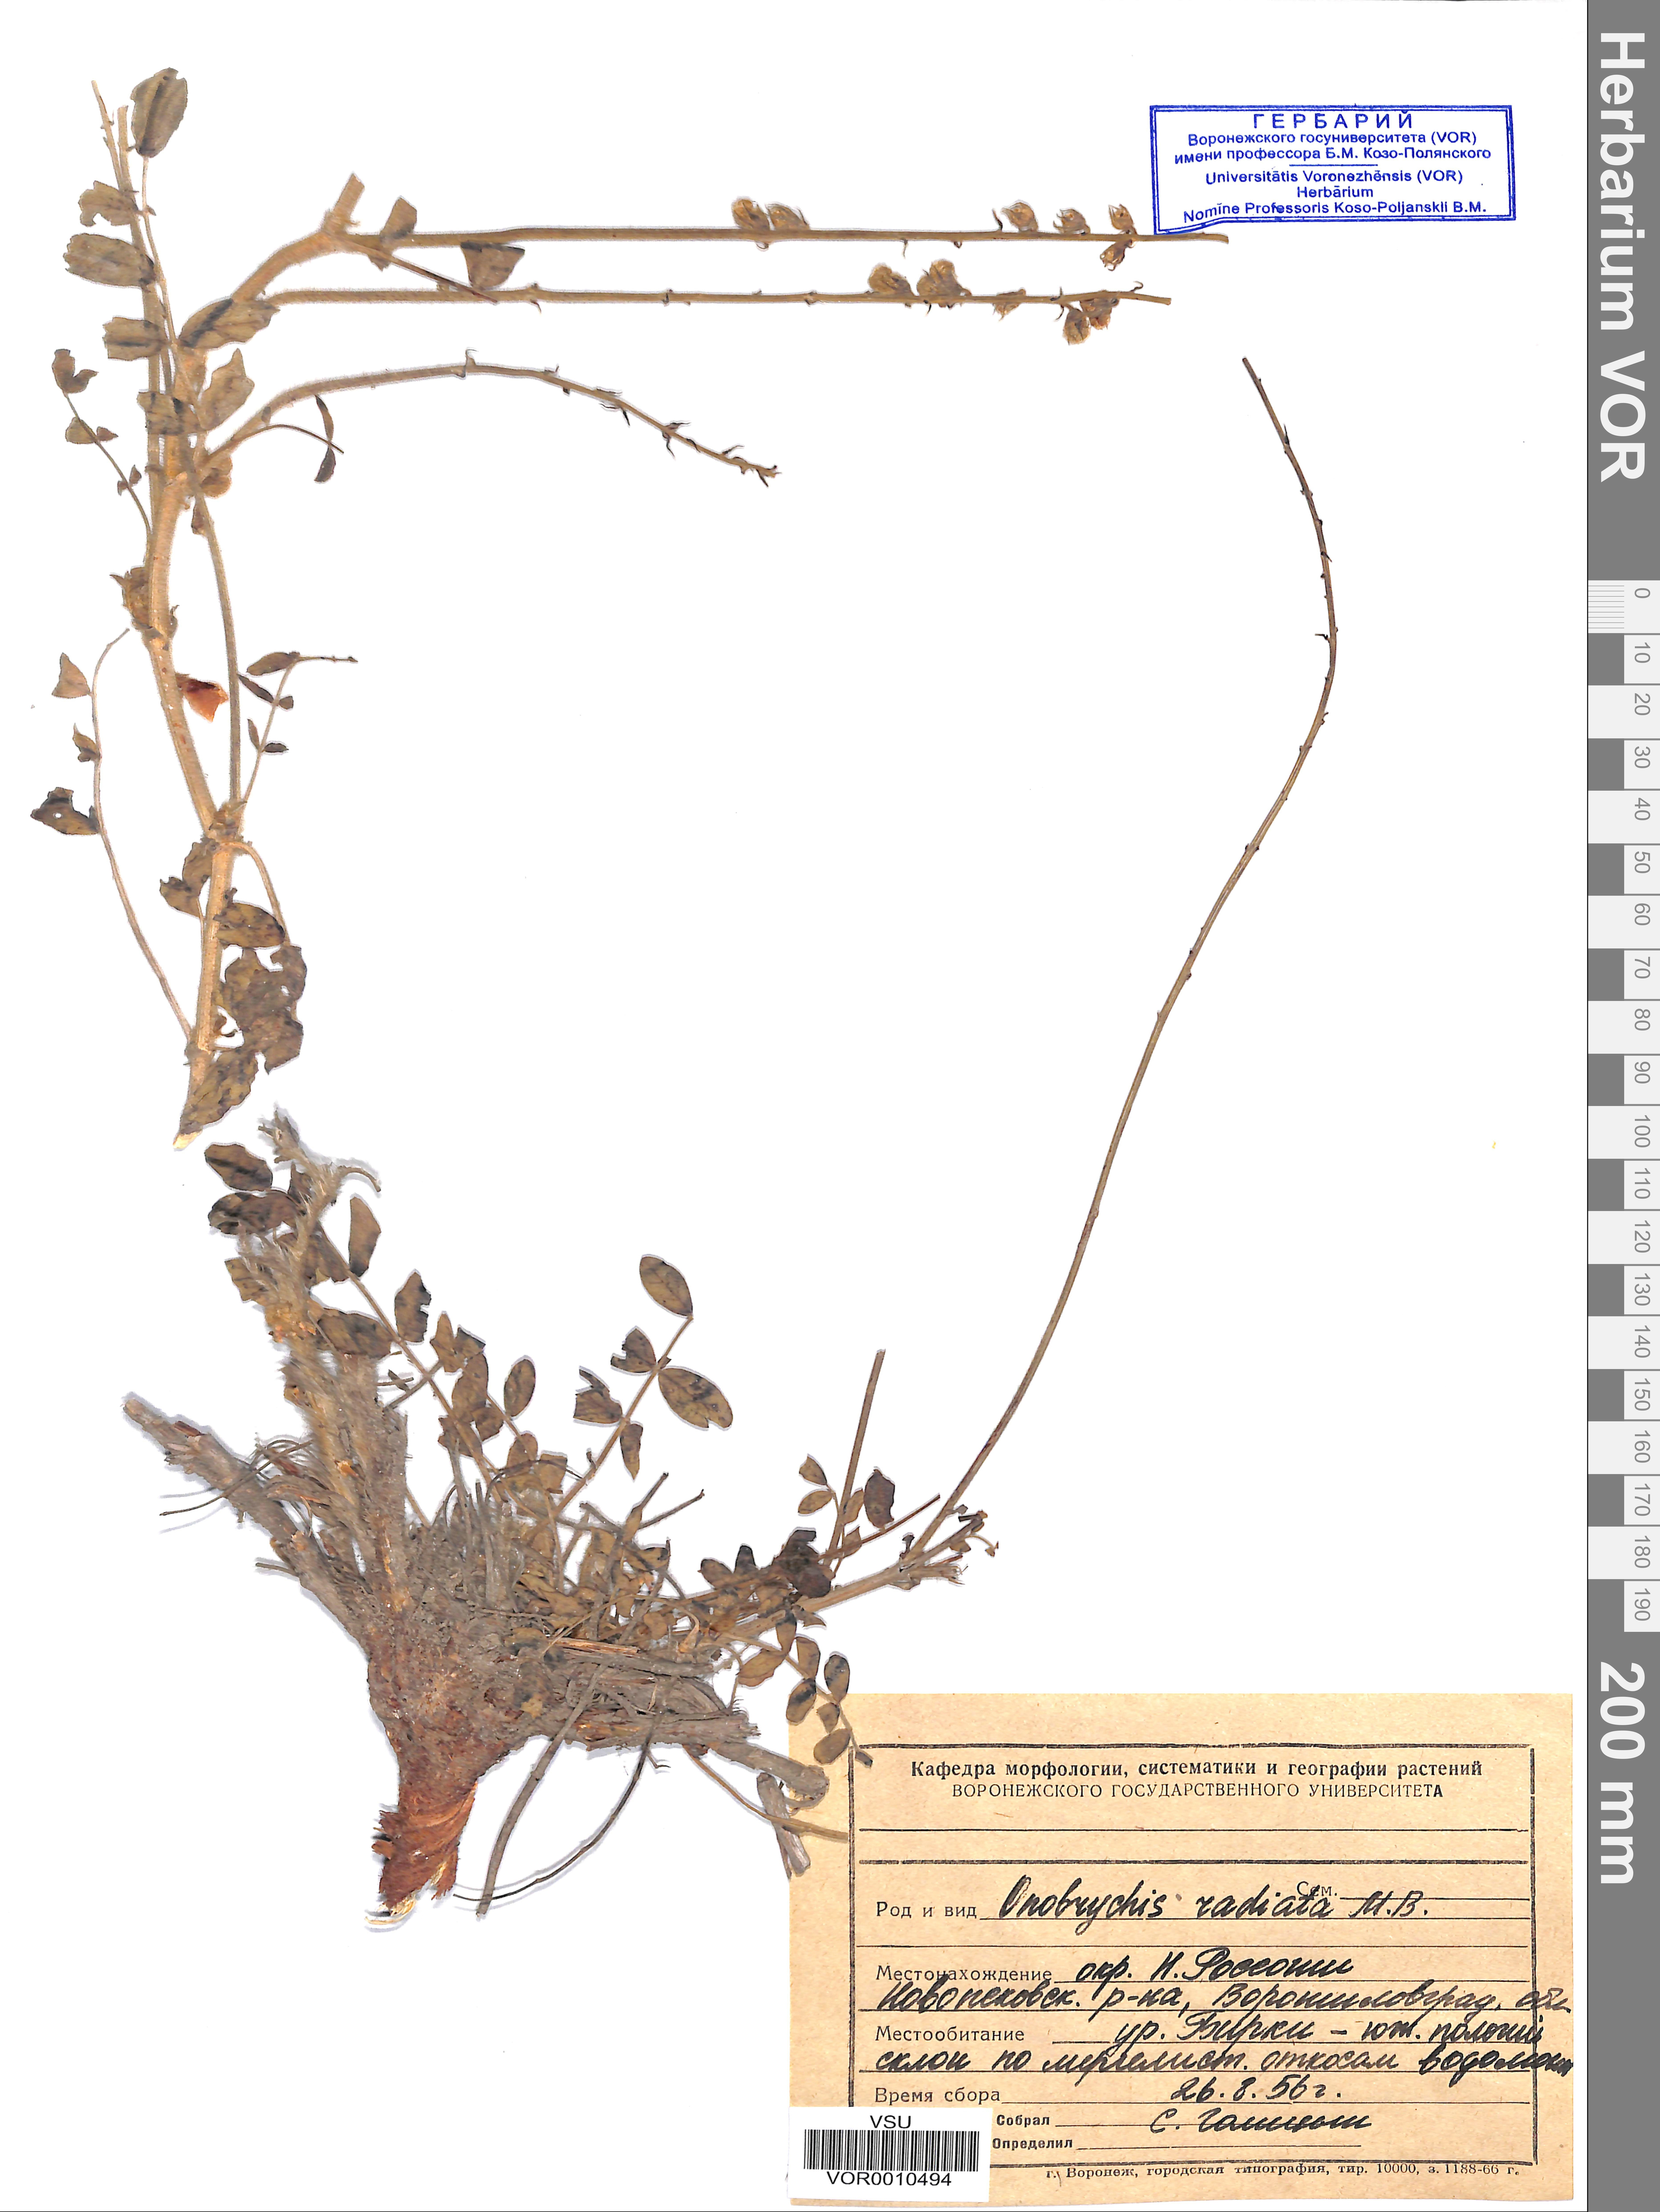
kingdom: Plantae
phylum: Tracheophyta
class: Magnoliopsida
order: Fabales
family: Fabaceae
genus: Onobrychis
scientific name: Onobrychis radiata
